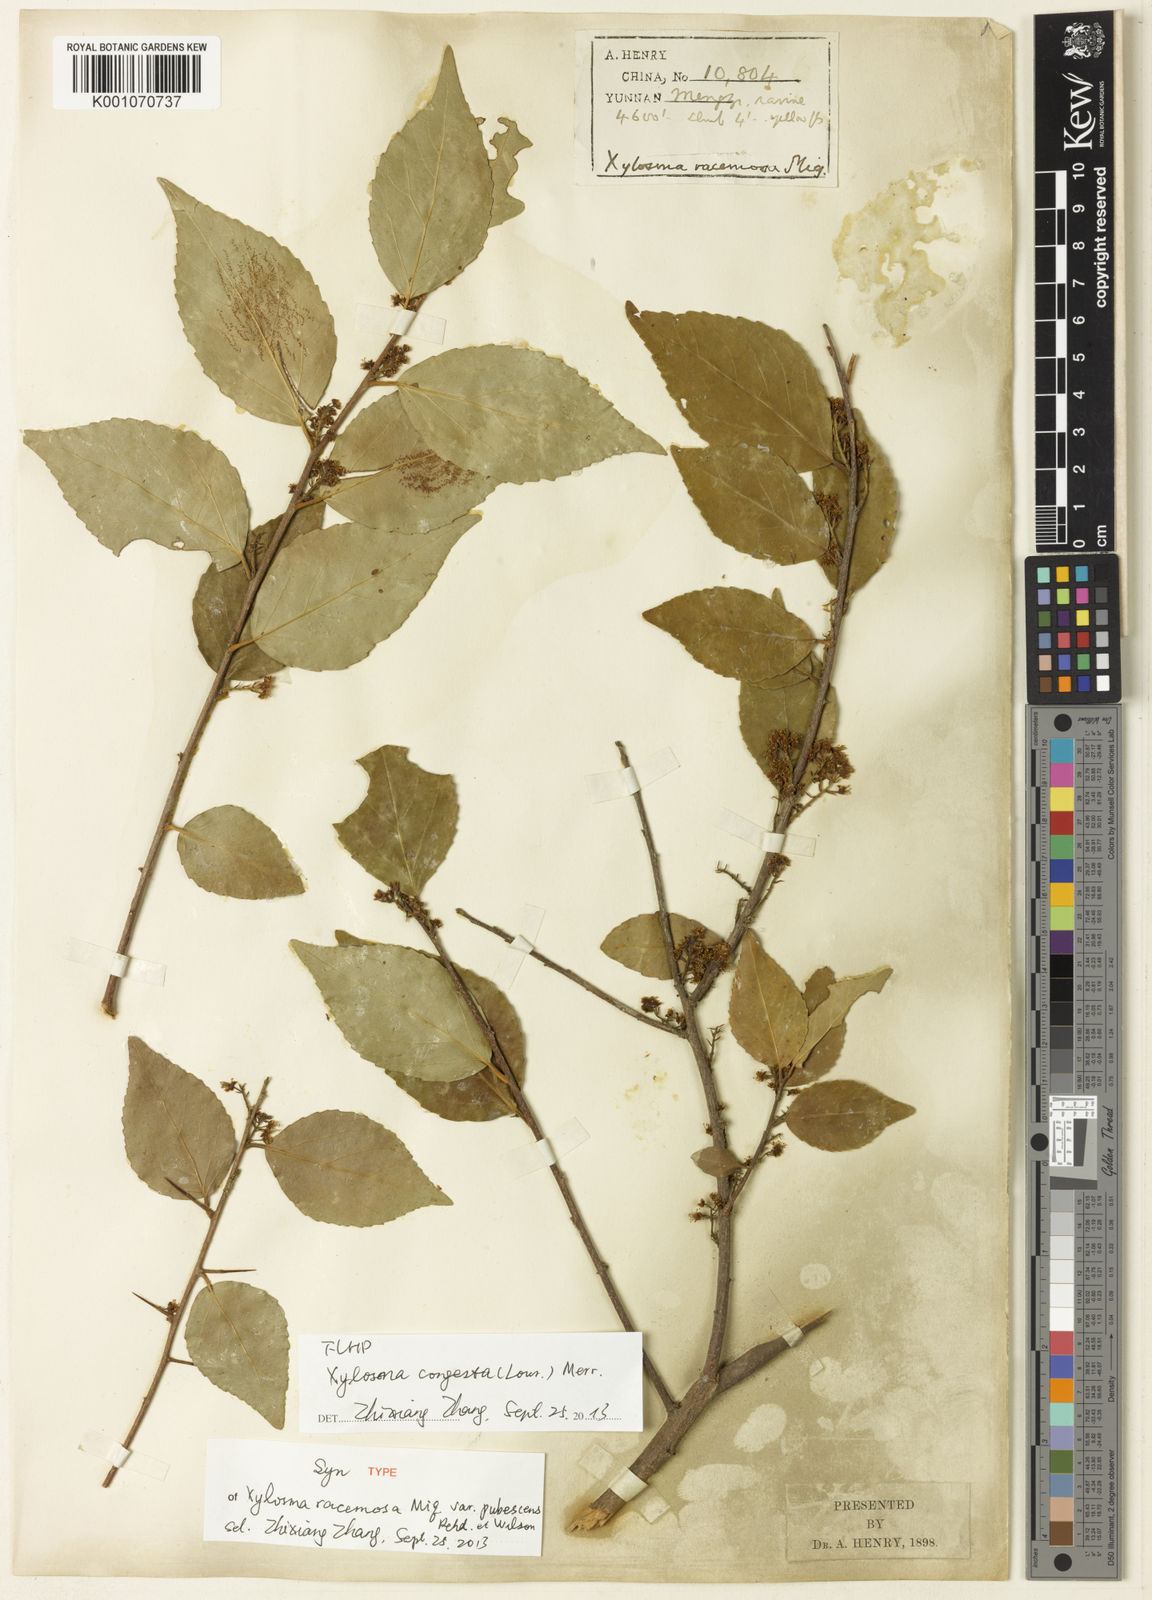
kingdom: Plantae
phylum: Tracheophyta
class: Magnoliopsida
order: Malpighiales
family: Salicaceae
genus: Xylosma
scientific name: Xylosma racemosum
